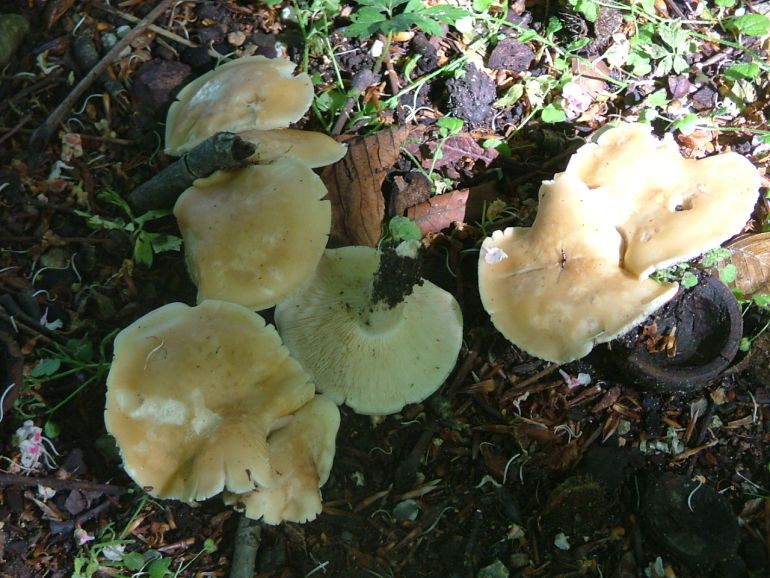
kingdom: Fungi
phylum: Basidiomycota
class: Agaricomycetes
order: Agaricales
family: Lyophyllaceae
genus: Calocybe
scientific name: Calocybe gambosa
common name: vårmusseron
